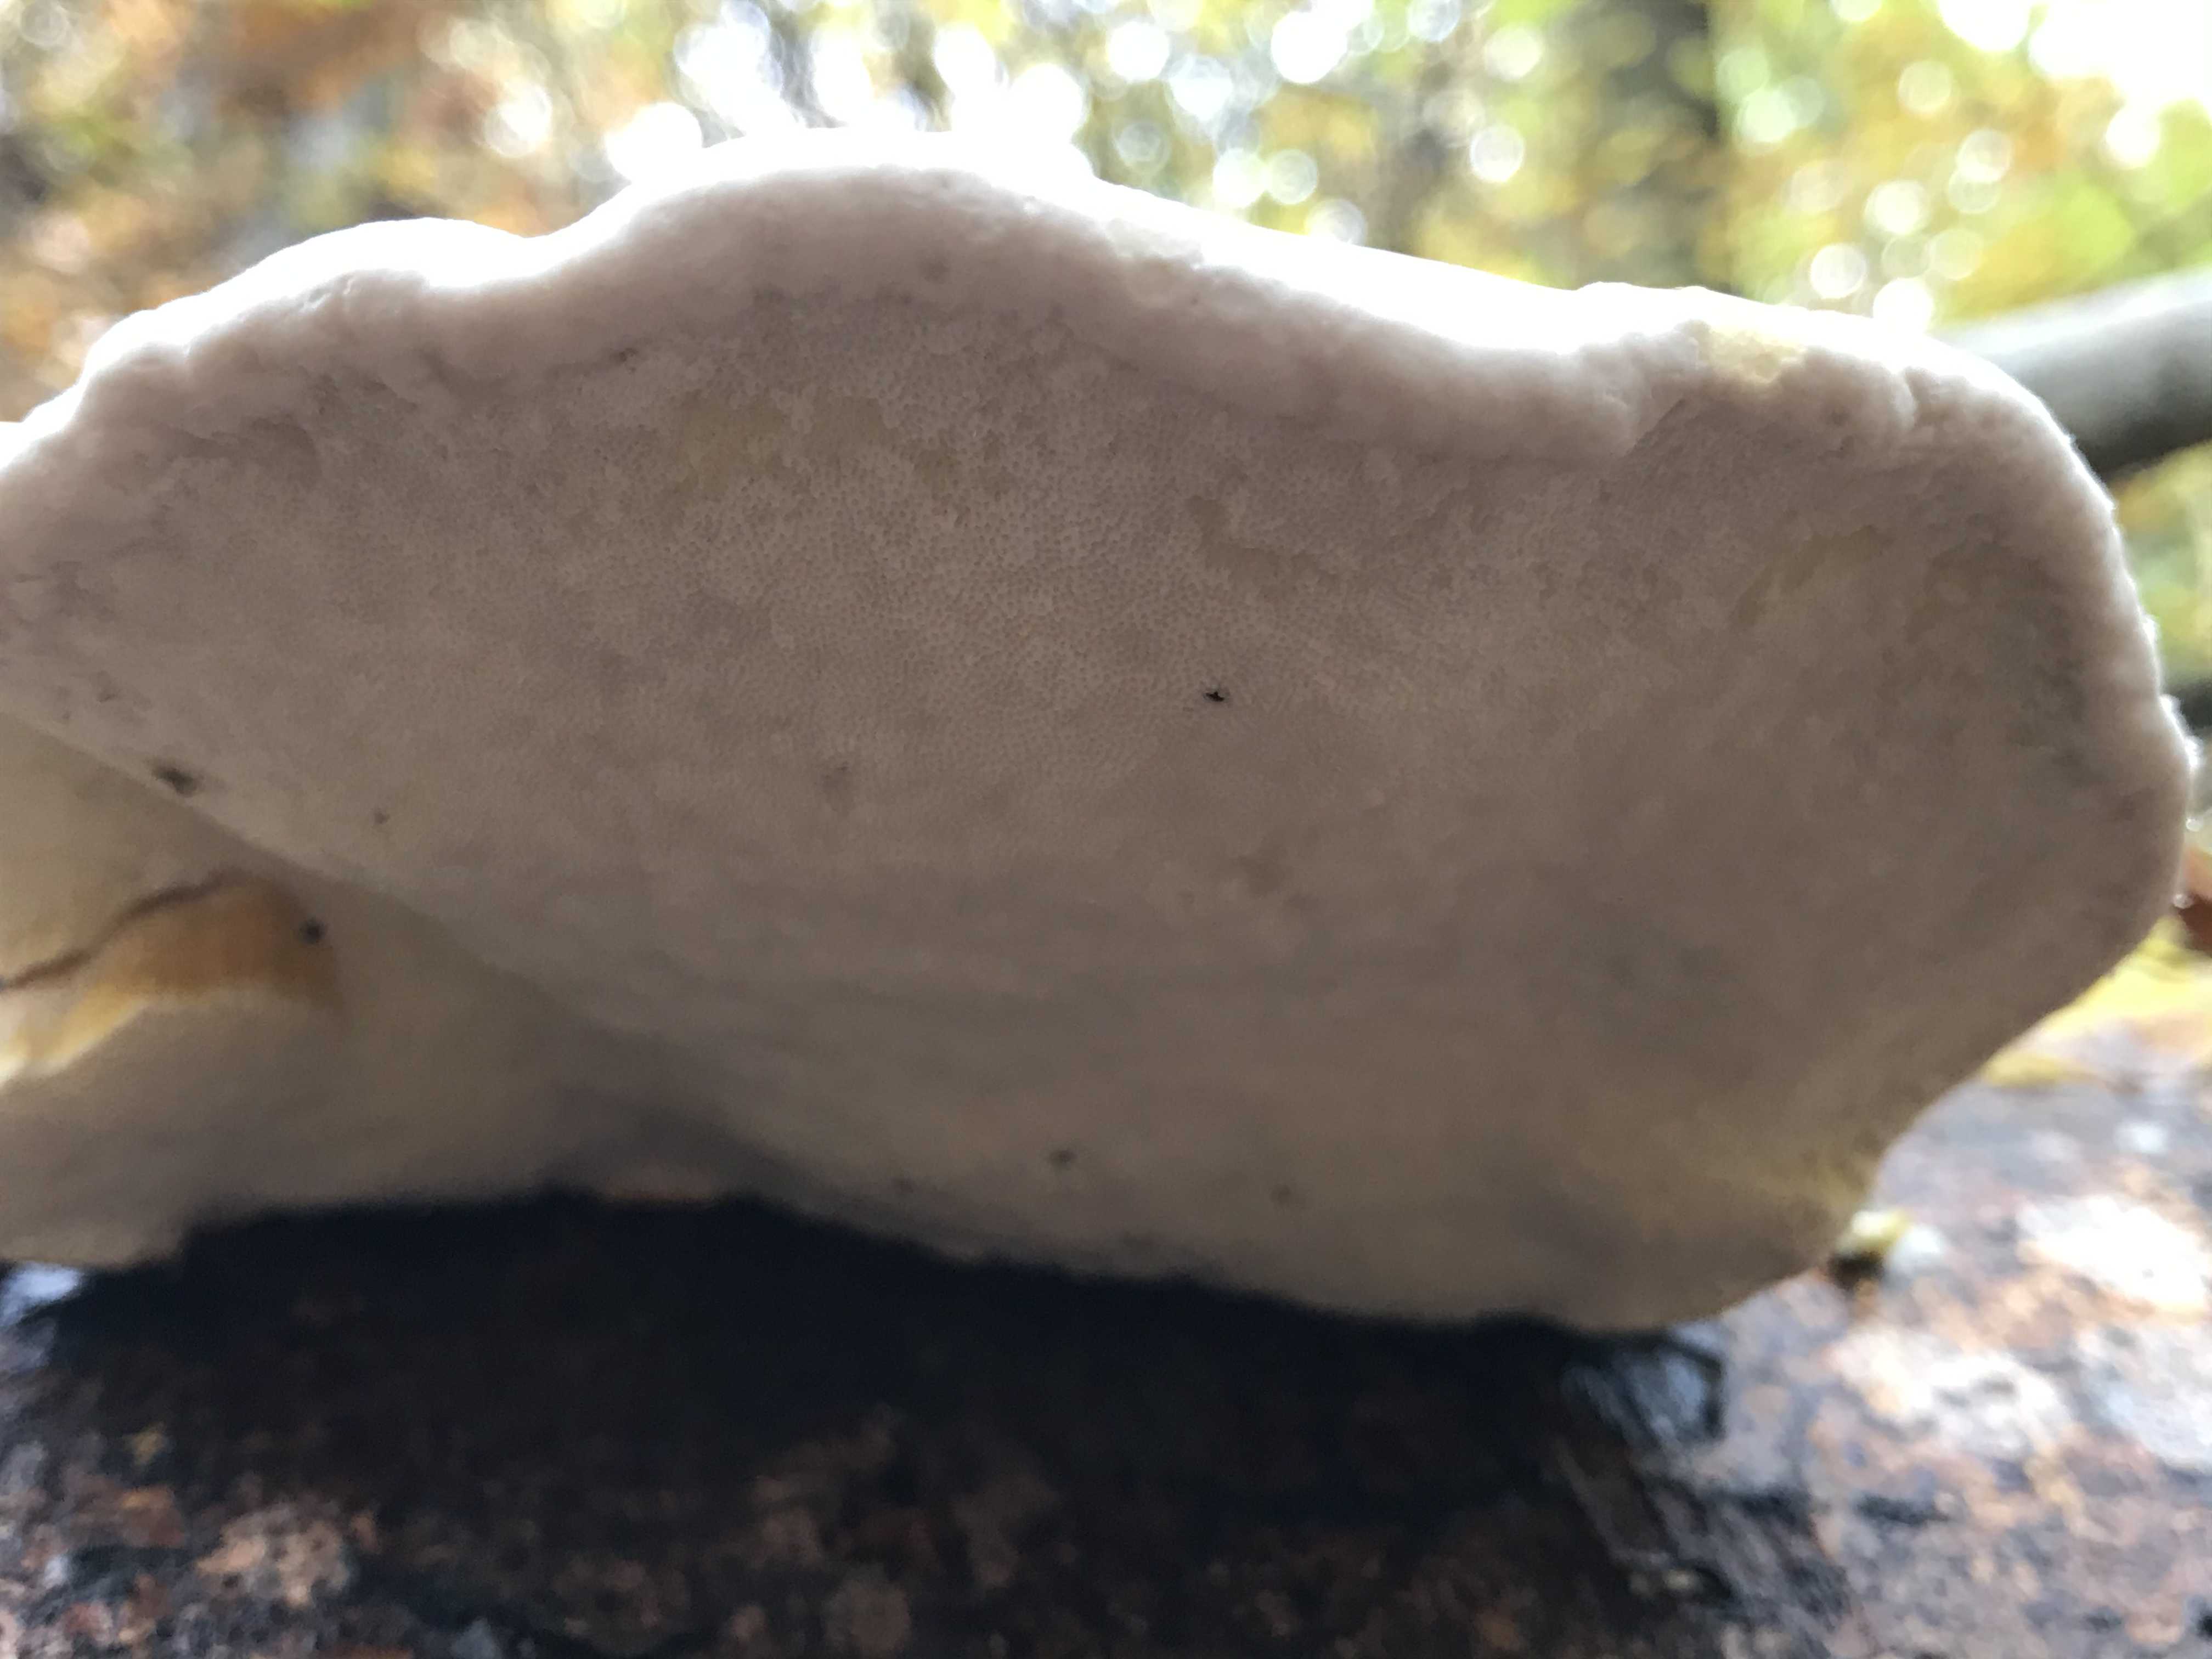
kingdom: Fungi
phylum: Basidiomycota
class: Agaricomycetes
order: Polyporales
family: Fomitopsidaceae
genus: Fomitopsis
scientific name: Fomitopsis pinicola
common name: randbæltet hovporesvamp
